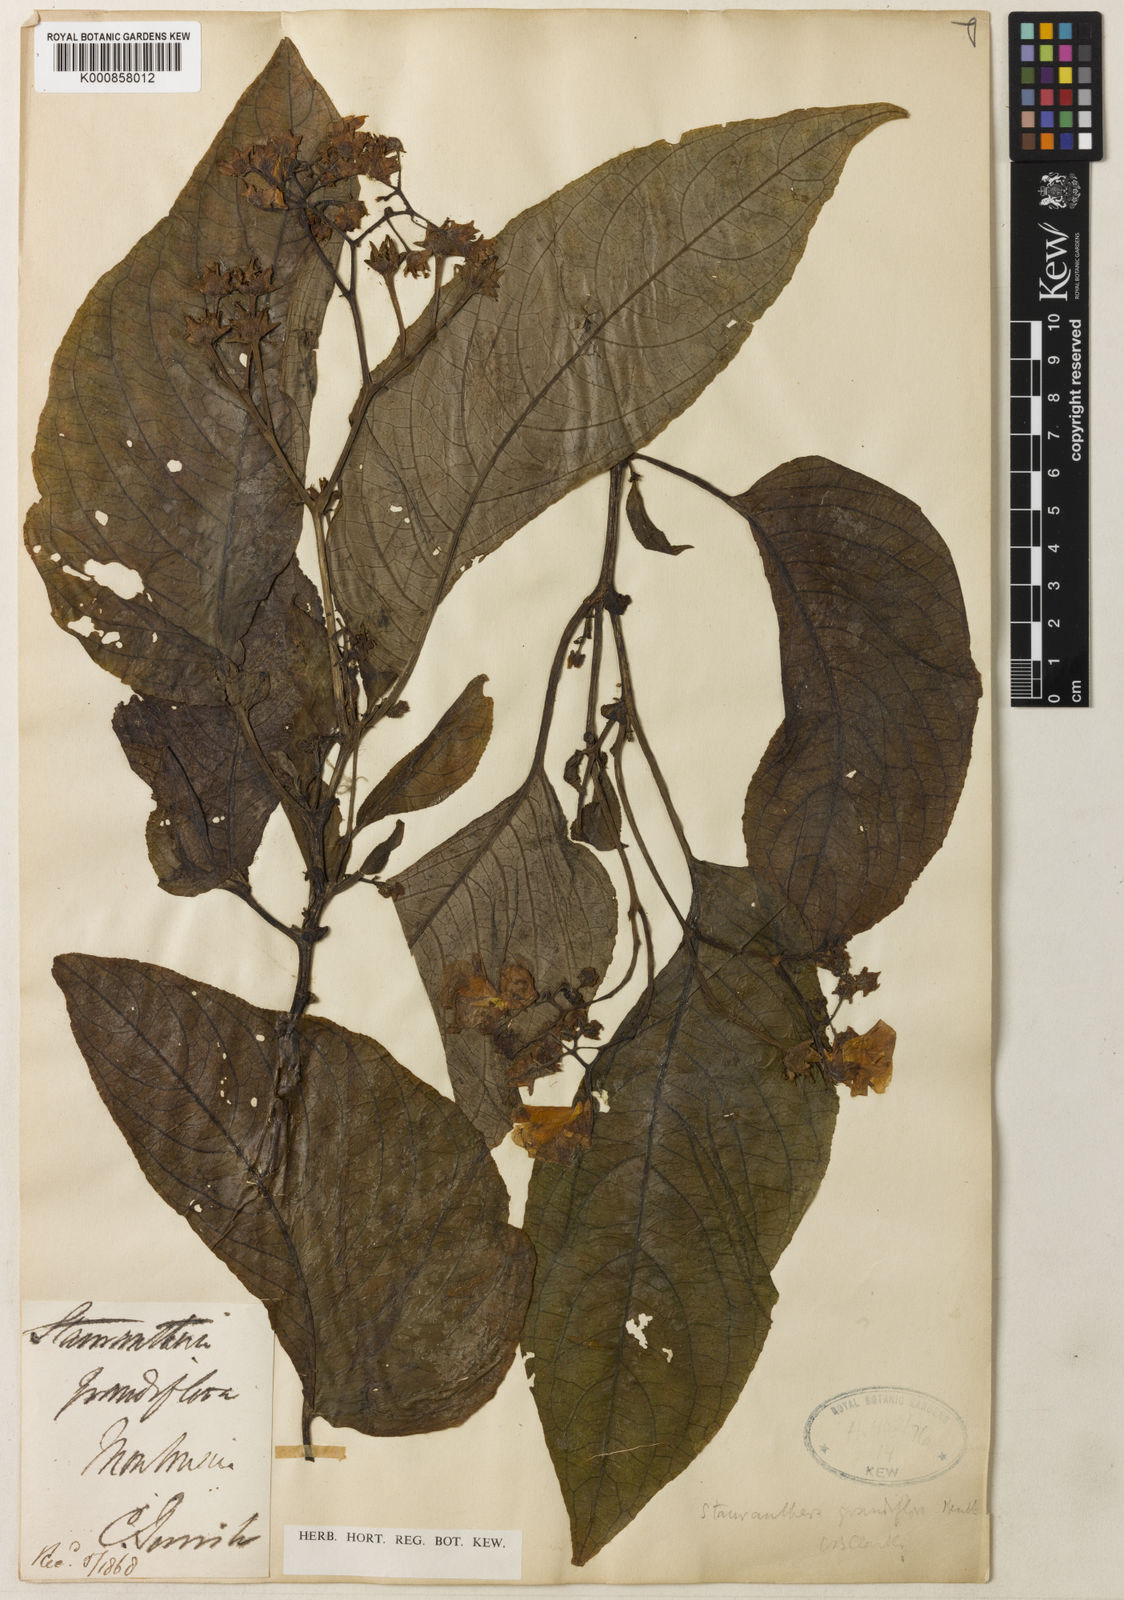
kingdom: Plantae
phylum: Tracheophyta
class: Magnoliopsida
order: Lamiales
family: Gesneriaceae
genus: Stauranthera
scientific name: Stauranthera
